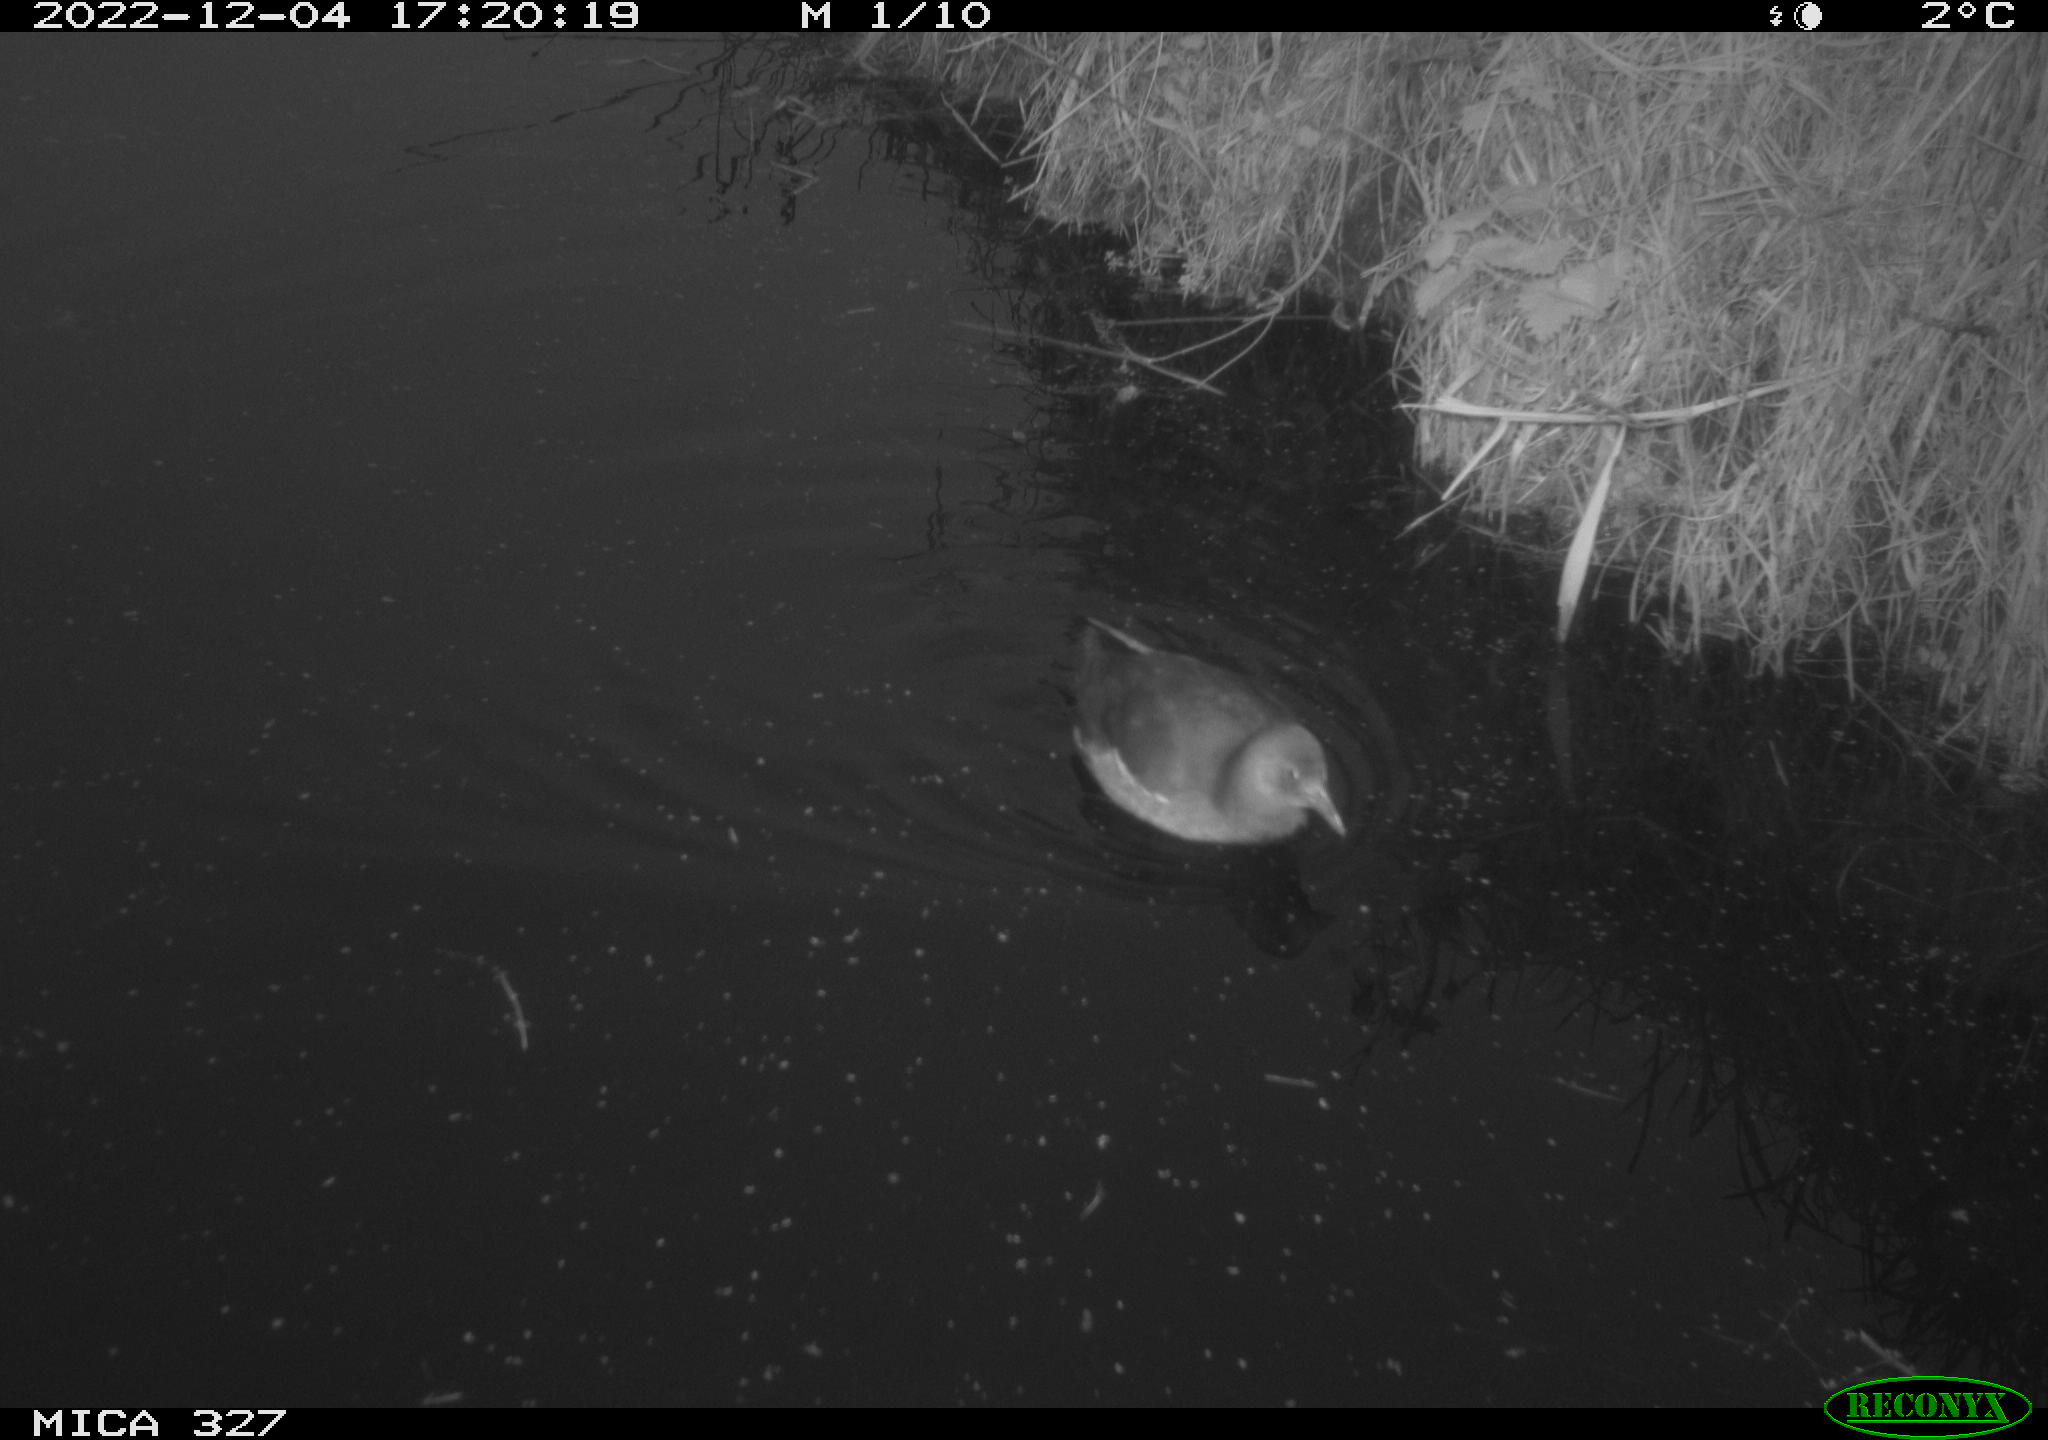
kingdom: Animalia
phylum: Chordata
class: Aves
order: Gruiformes
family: Rallidae
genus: Gallinula
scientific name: Gallinula chloropus
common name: Common moorhen
